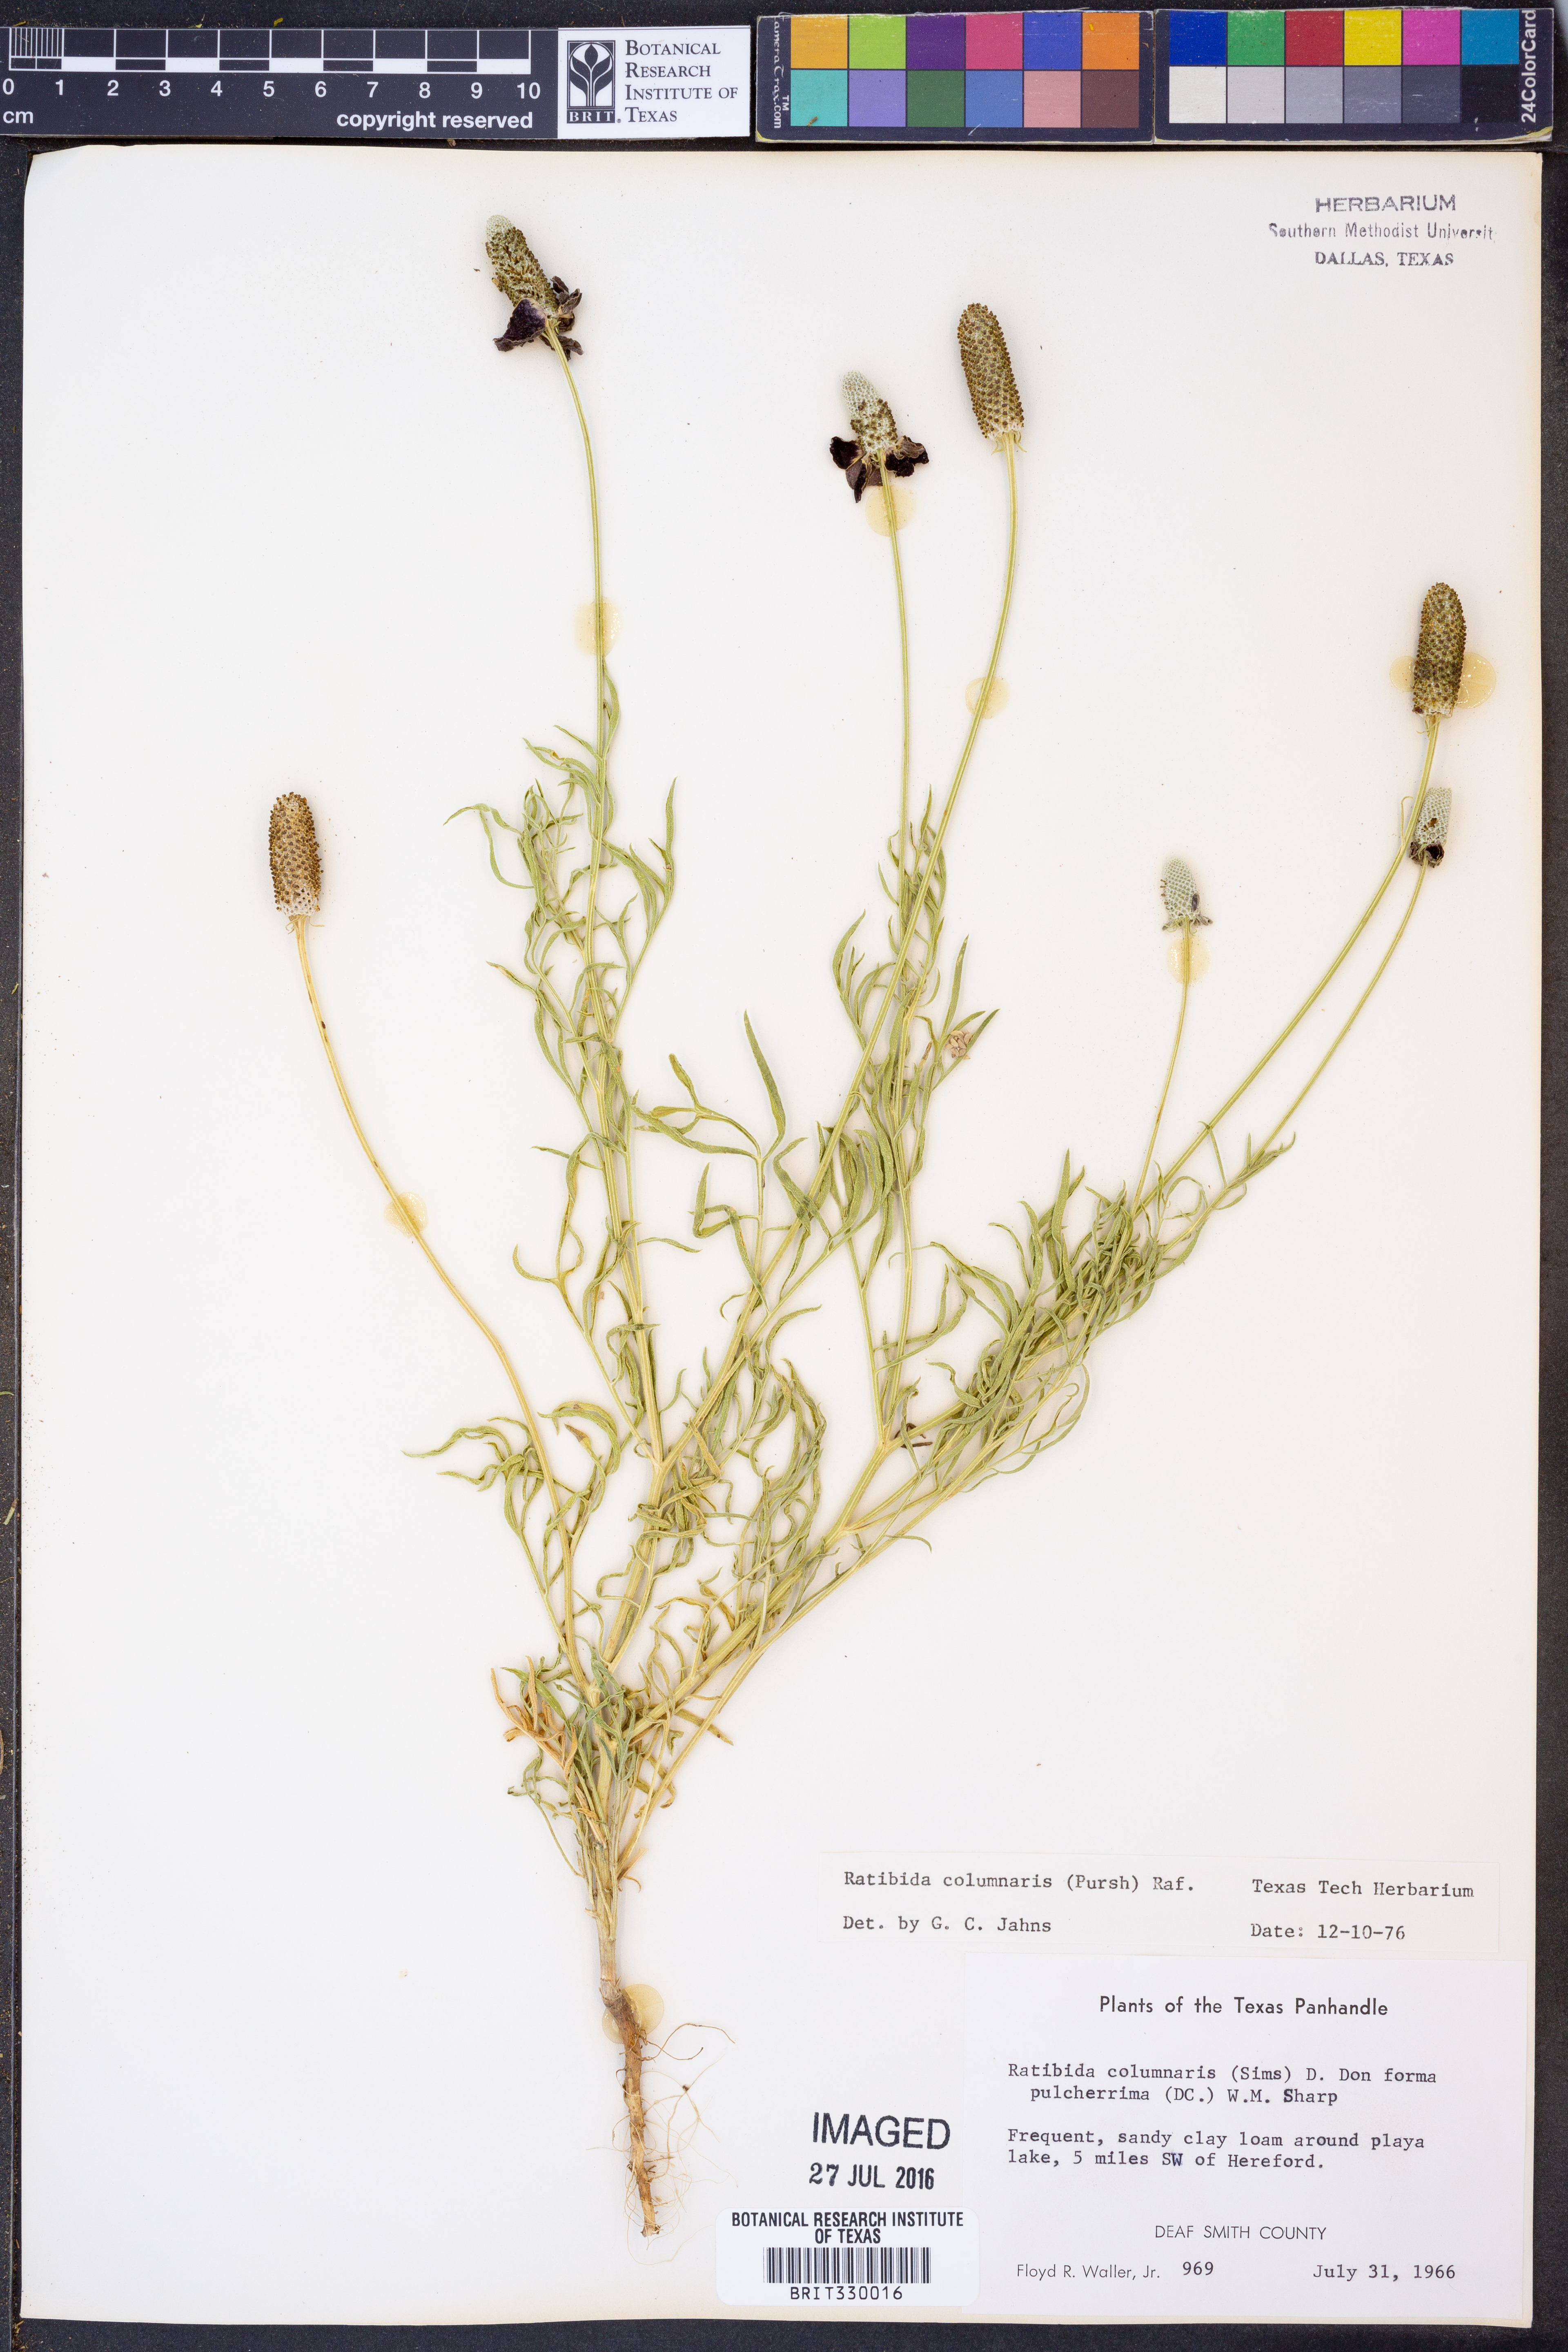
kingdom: Plantae
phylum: Tracheophyta
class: Magnoliopsida
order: Asterales
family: Asteraceae
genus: Ratibida
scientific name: Ratibida columnifera
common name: Prairie coneflower
